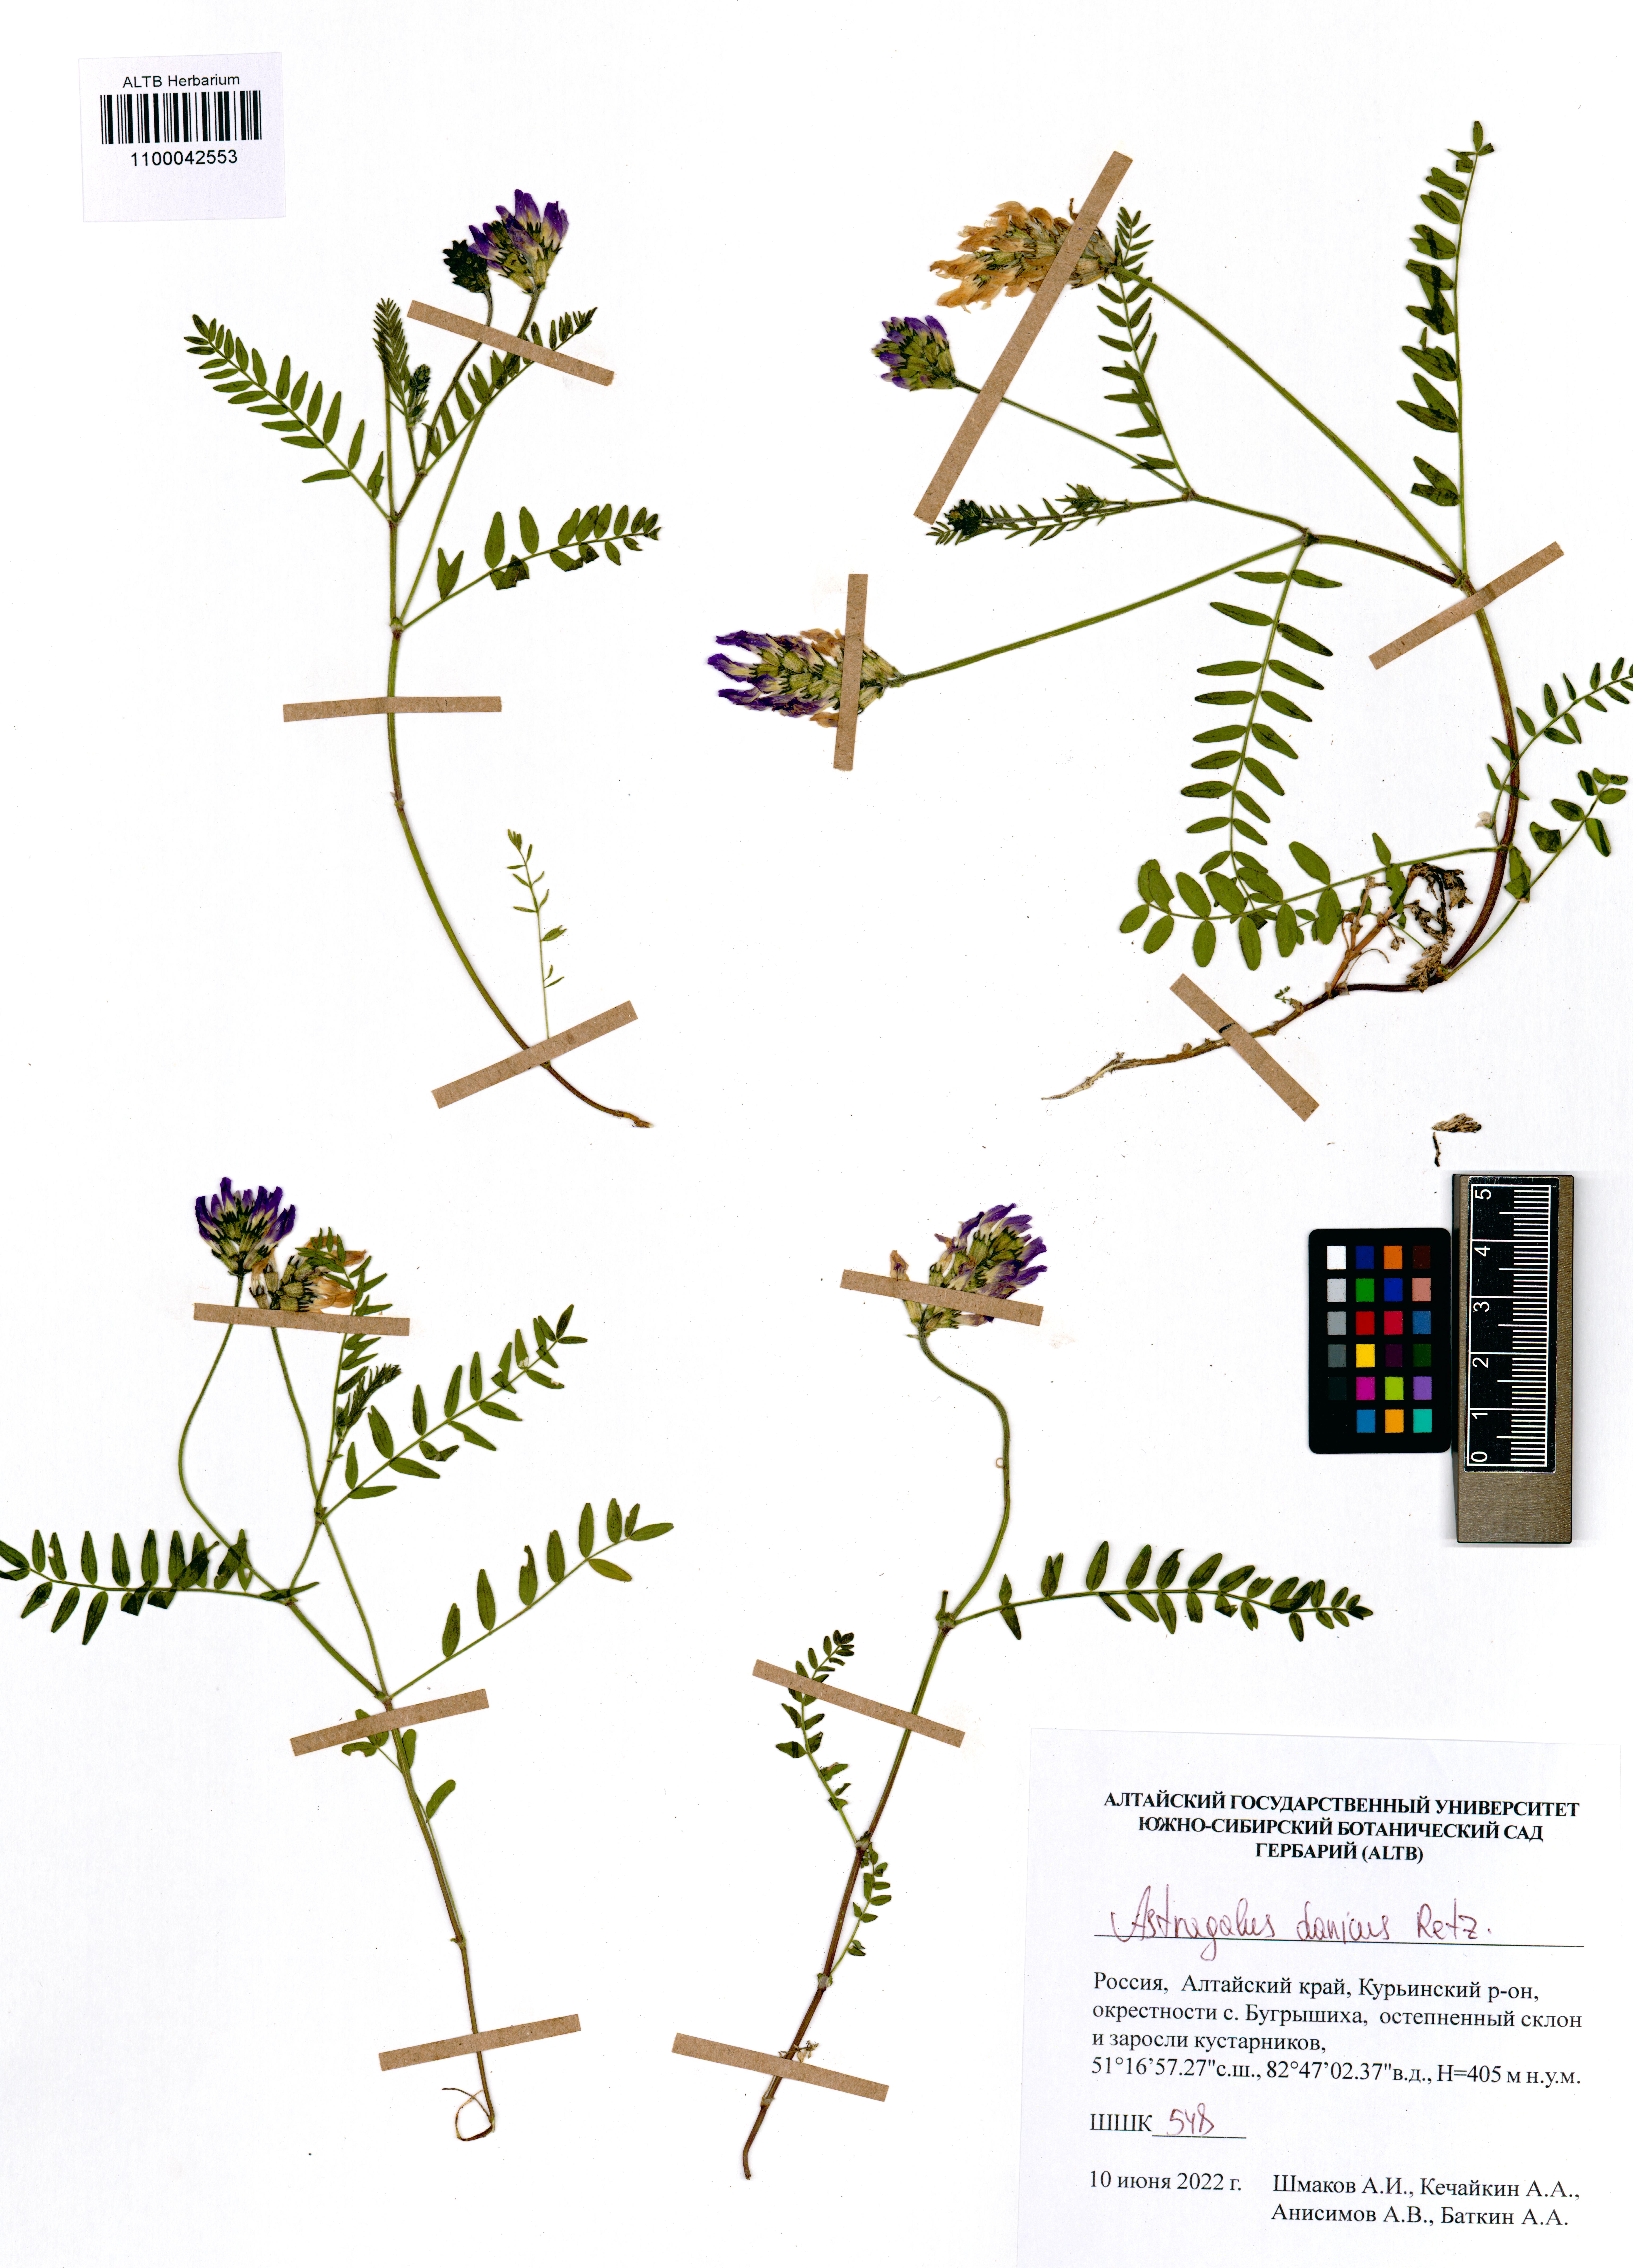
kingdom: Plantae
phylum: Tracheophyta
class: Magnoliopsida
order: Fabales
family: Fabaceae
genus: Astragalus
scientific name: Astragalus danicus
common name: Purple milk-vetch
